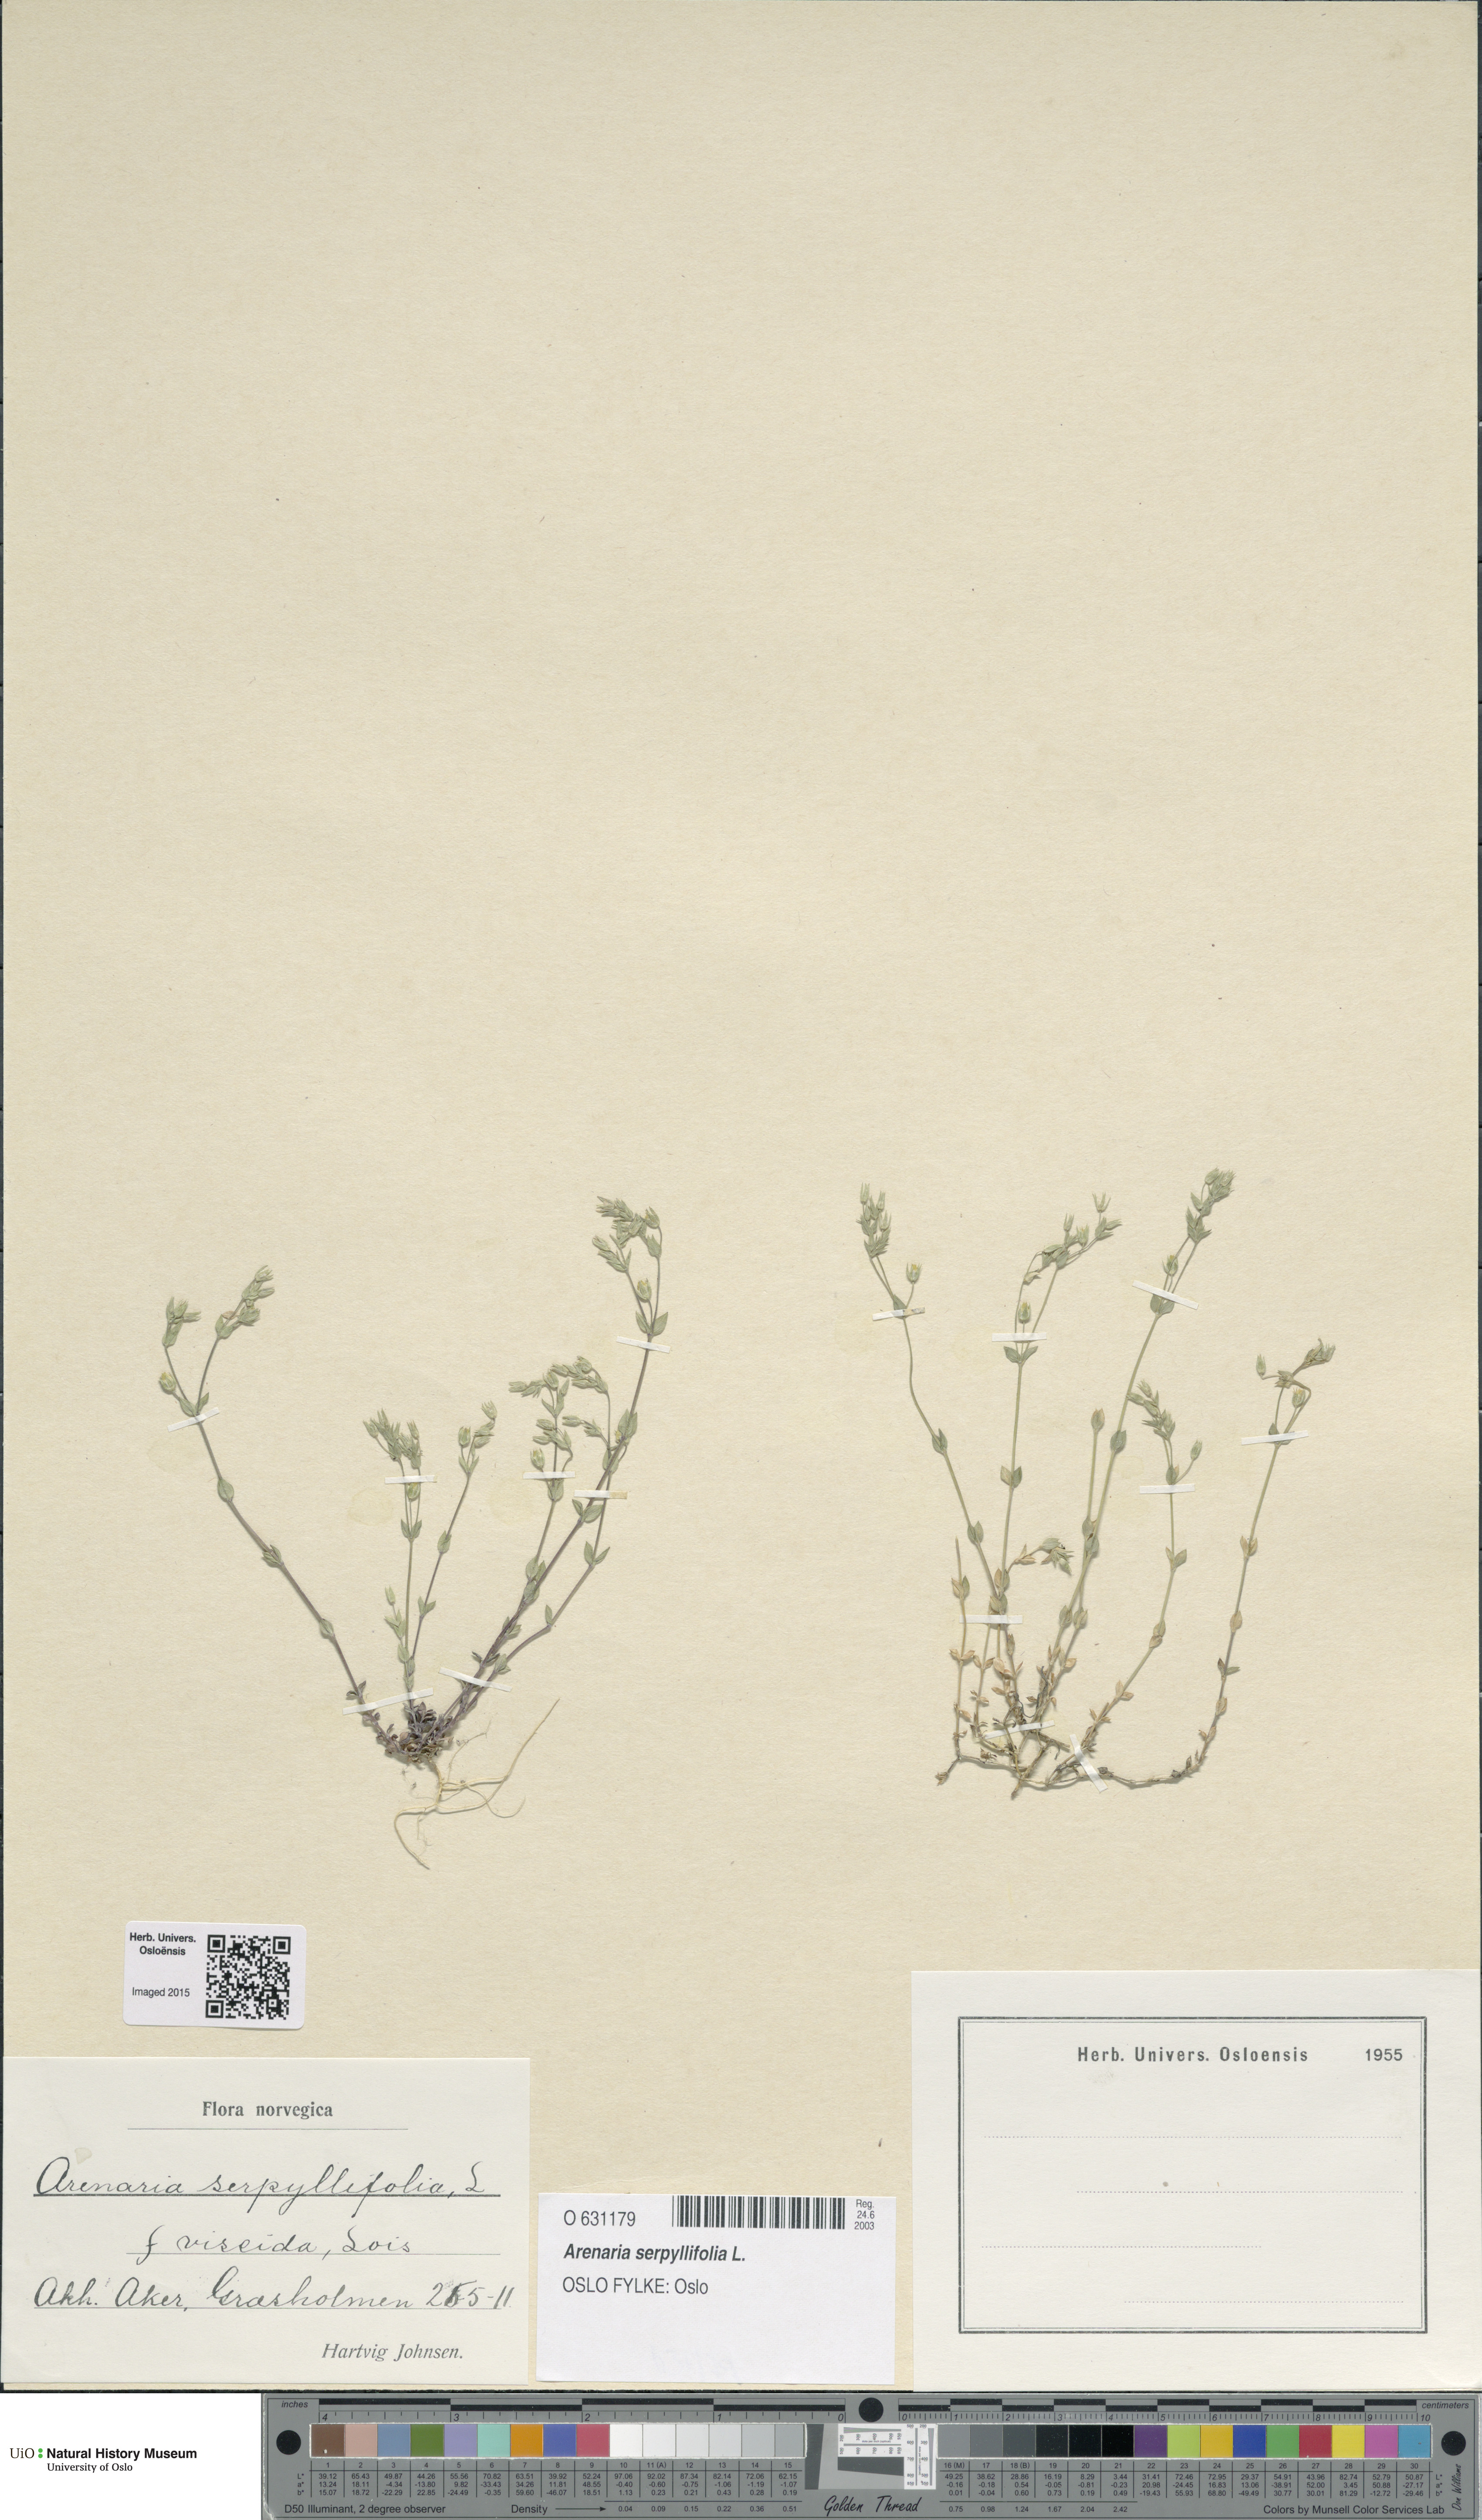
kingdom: Plantae
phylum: Tracheophyta
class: Magnoliopsida
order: Caryophyllales
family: Caryophyllaceae
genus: Arenaria
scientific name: Arenaria serpyllifolia
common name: Thyme-leaved sandwort
